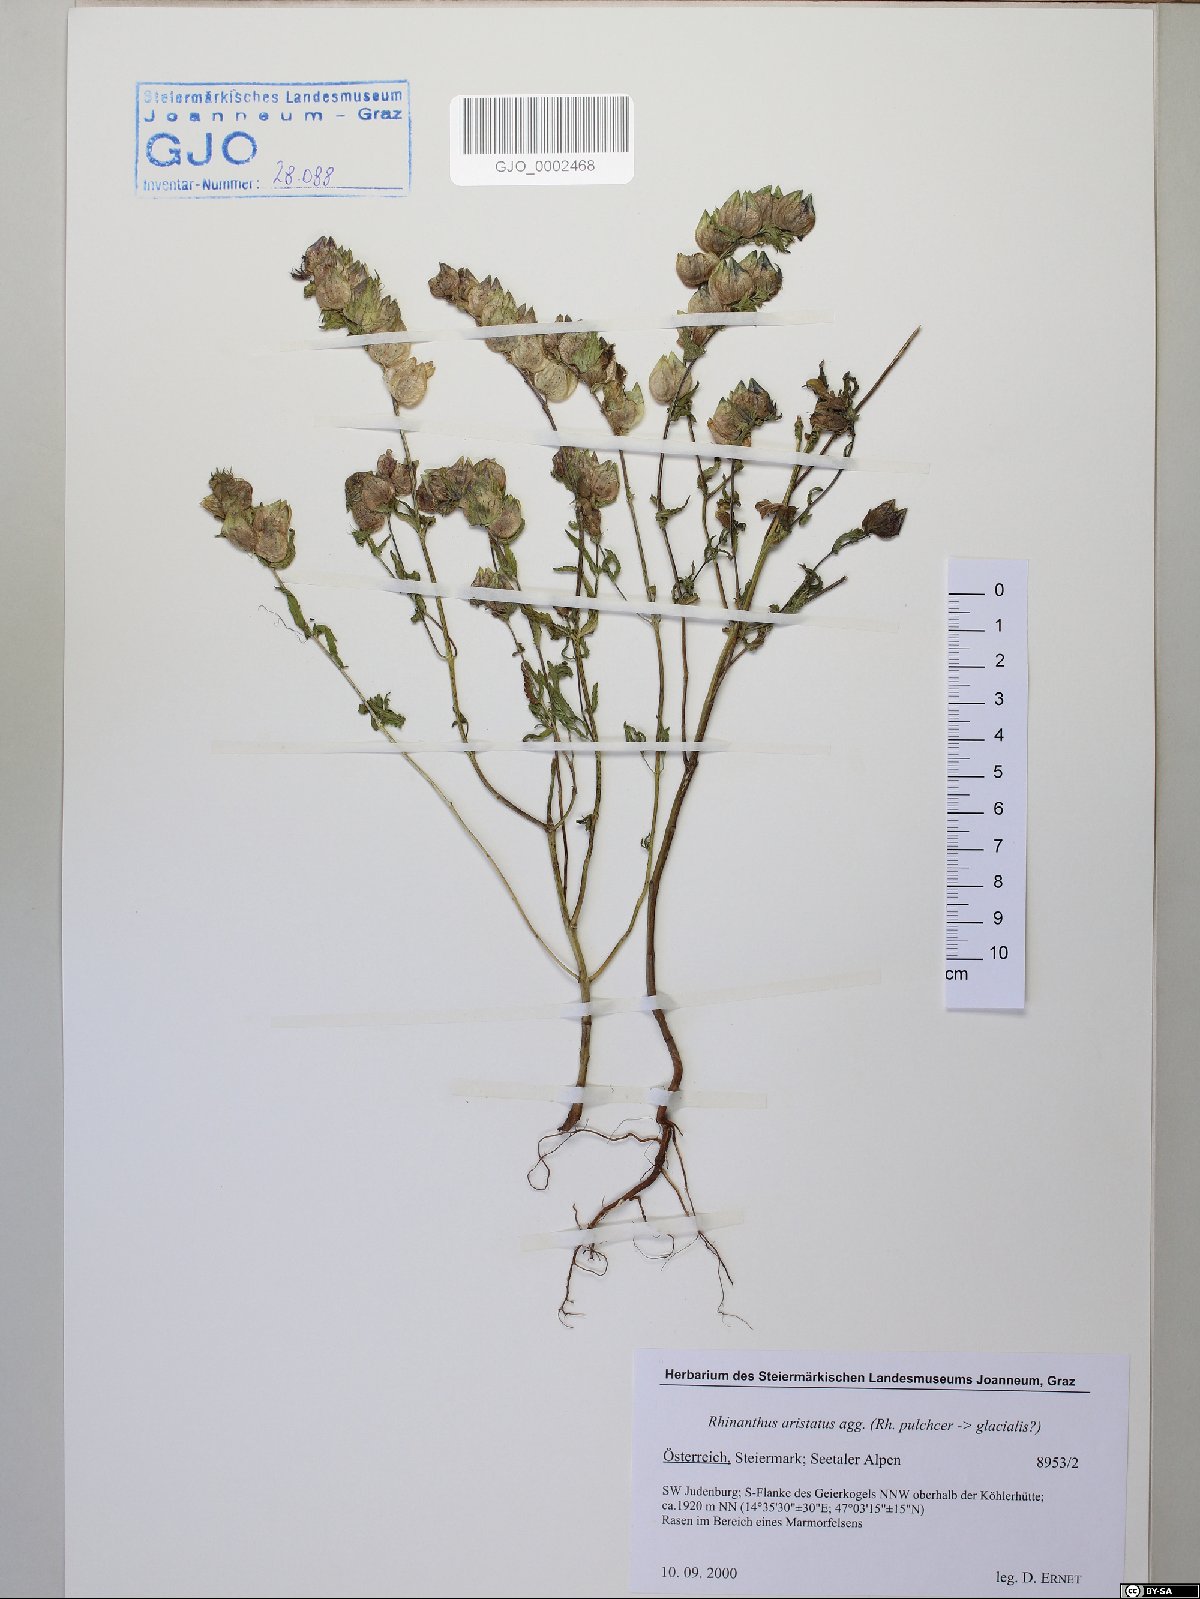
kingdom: Plantae
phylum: Tracheophyta
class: Magnoliopsida
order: Lamiales
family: Orobanchaceae
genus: Rhinanthus
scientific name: Rhinanthus glacialis
